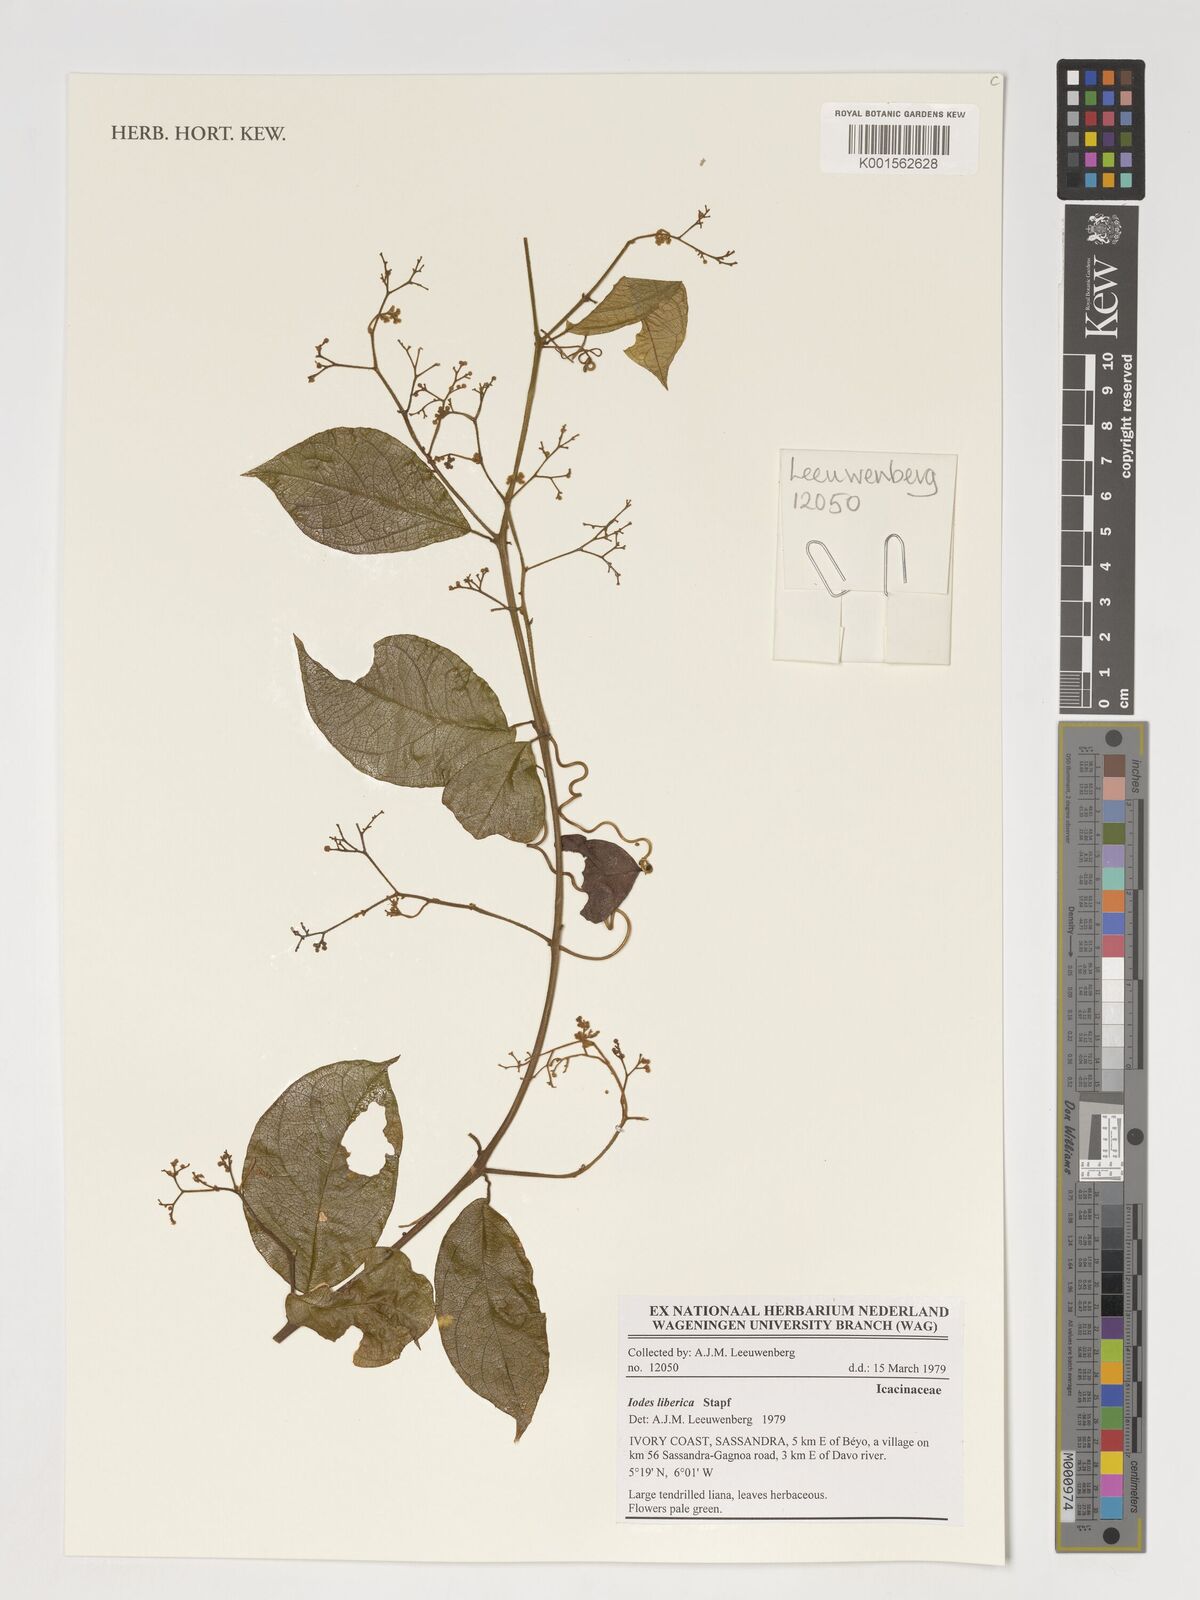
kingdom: Plantae
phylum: Tracheophyta
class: Magnoliopsida
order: Icacinales
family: Icacinaceae
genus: Iodes
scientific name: Iodes liberica
